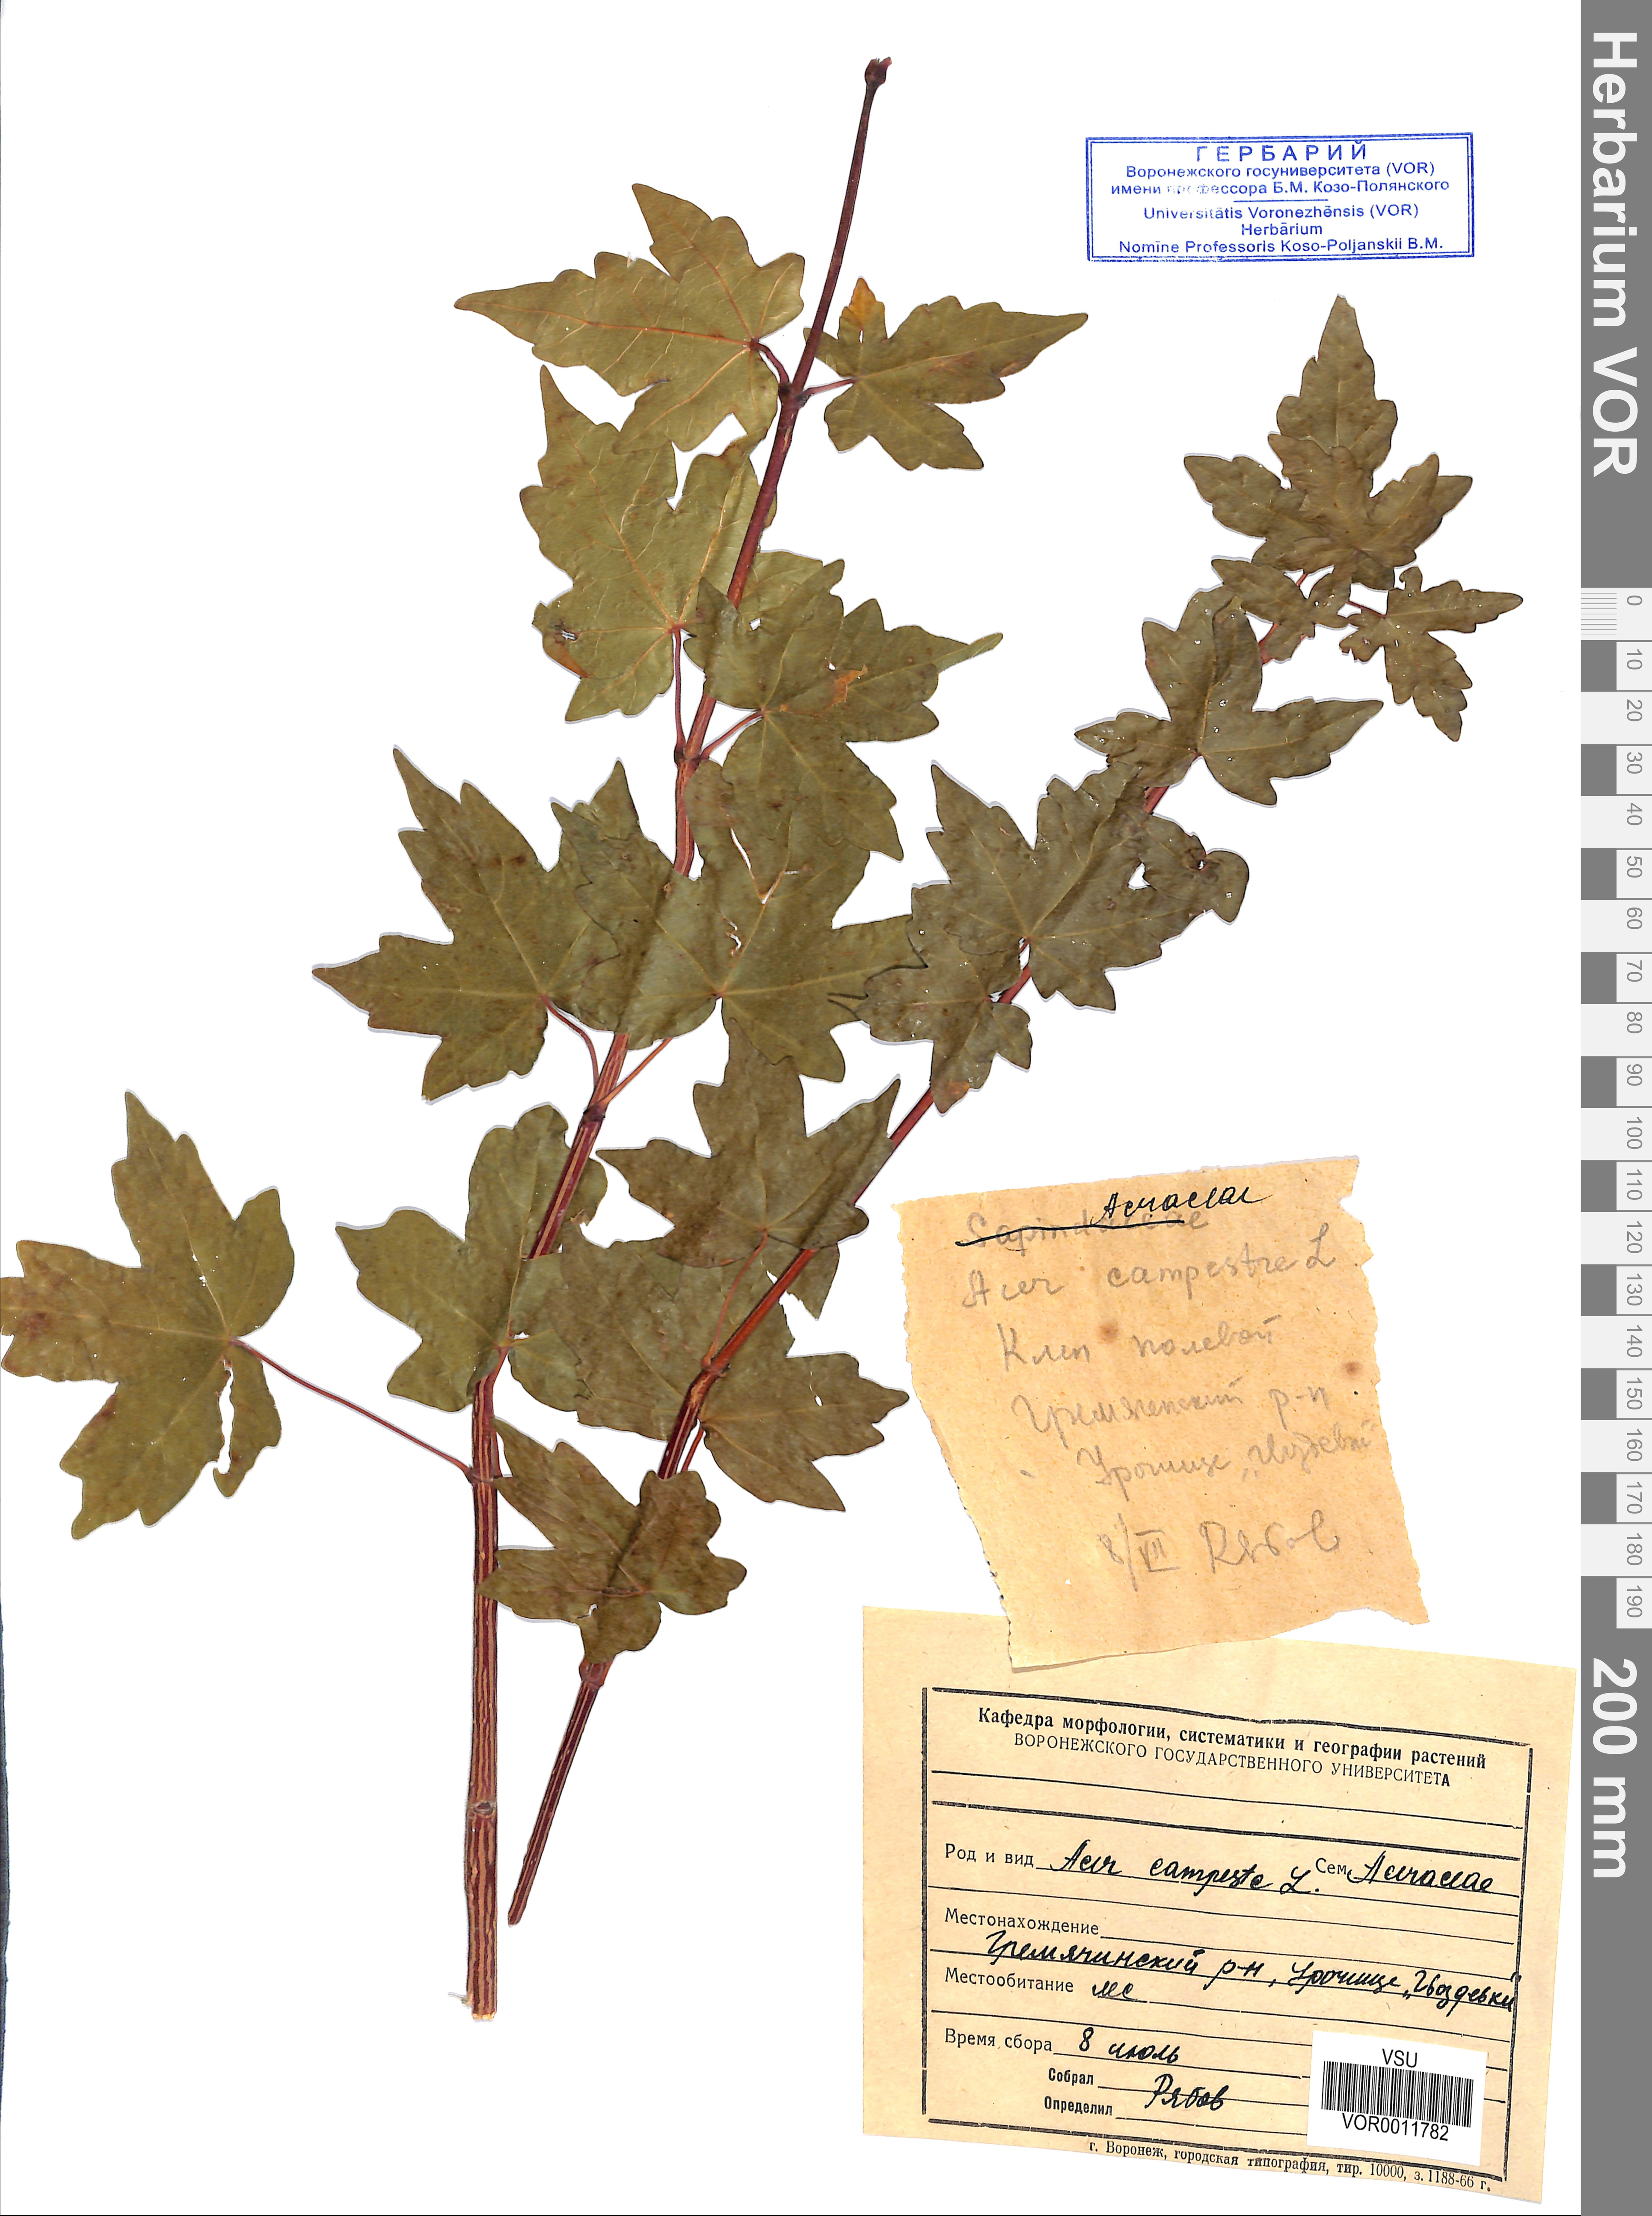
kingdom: Plantae
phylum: Tracheophyta
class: Magnoliopsida
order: Sapindales
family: Sapindaceae
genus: Acer
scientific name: Acer campestre
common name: Field maple
